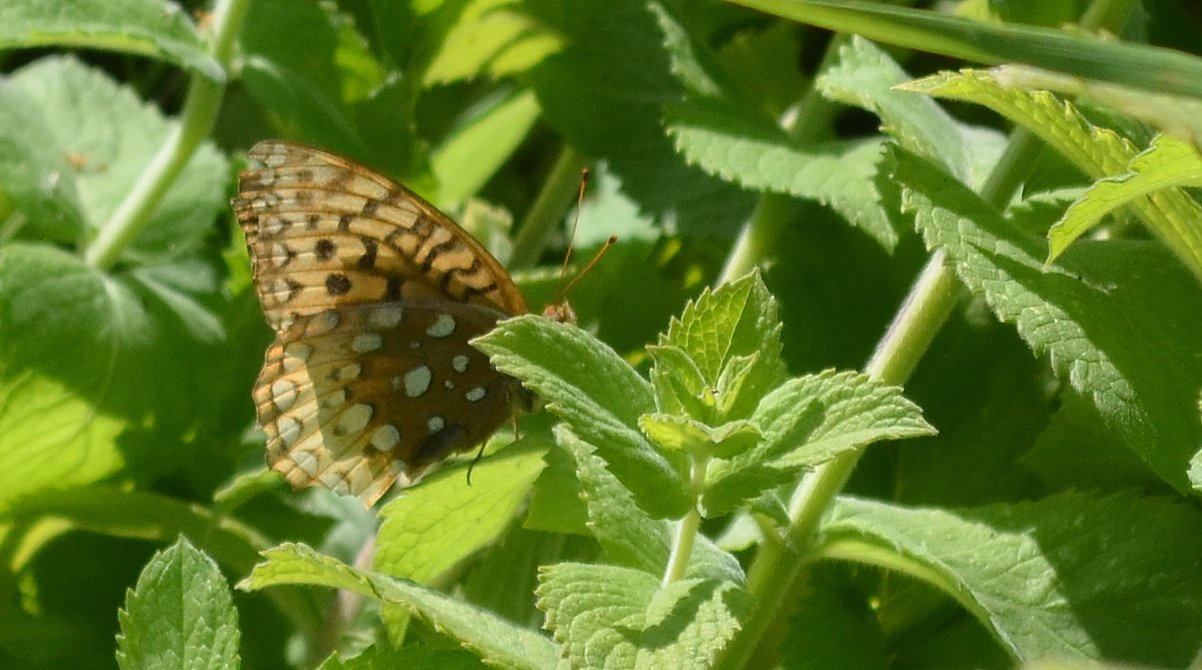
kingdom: Animalia
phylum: Arthropoda
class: Insecta
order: Lepidoptera
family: Nymphalidae
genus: Speyeria
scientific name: Speyeria cybele
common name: Great Spangled Fritillary
